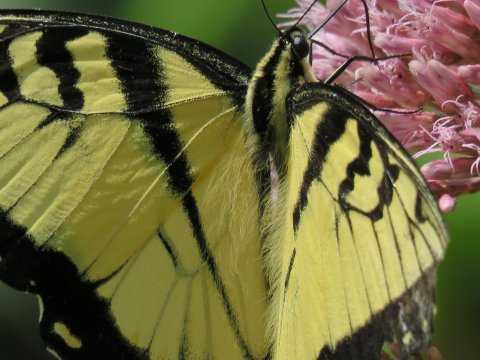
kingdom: Animalia
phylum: Arthropoda
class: Insecta
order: Lepidoptera
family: Papilionidae
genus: Pterourus
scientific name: Pterourus glaucus
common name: Eastern Tiger Swallowtail
